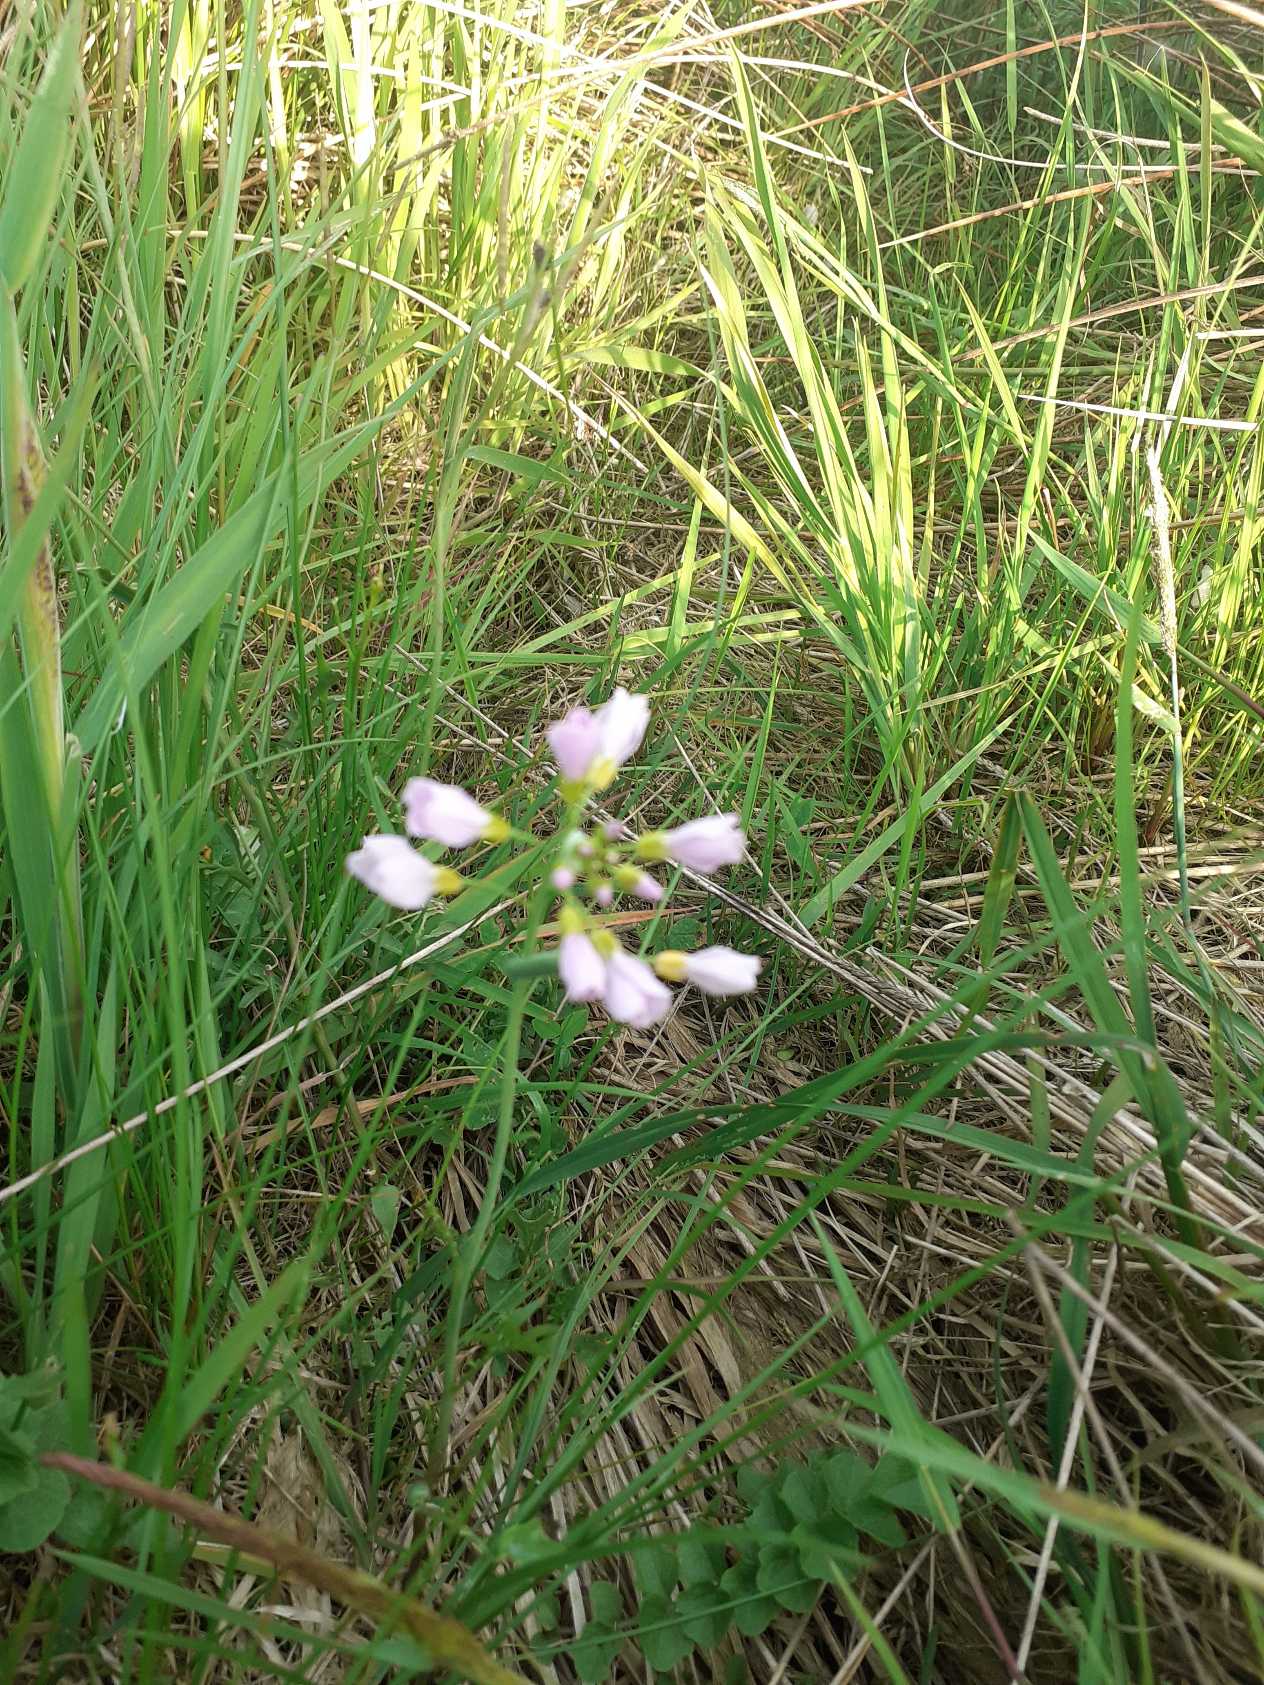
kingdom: Plantae
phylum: Tracheophyta
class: Magnoliopsida
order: Brassicales
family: Brassicaceae
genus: Cardamine
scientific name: Cardamine pratensis
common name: Engkarse
